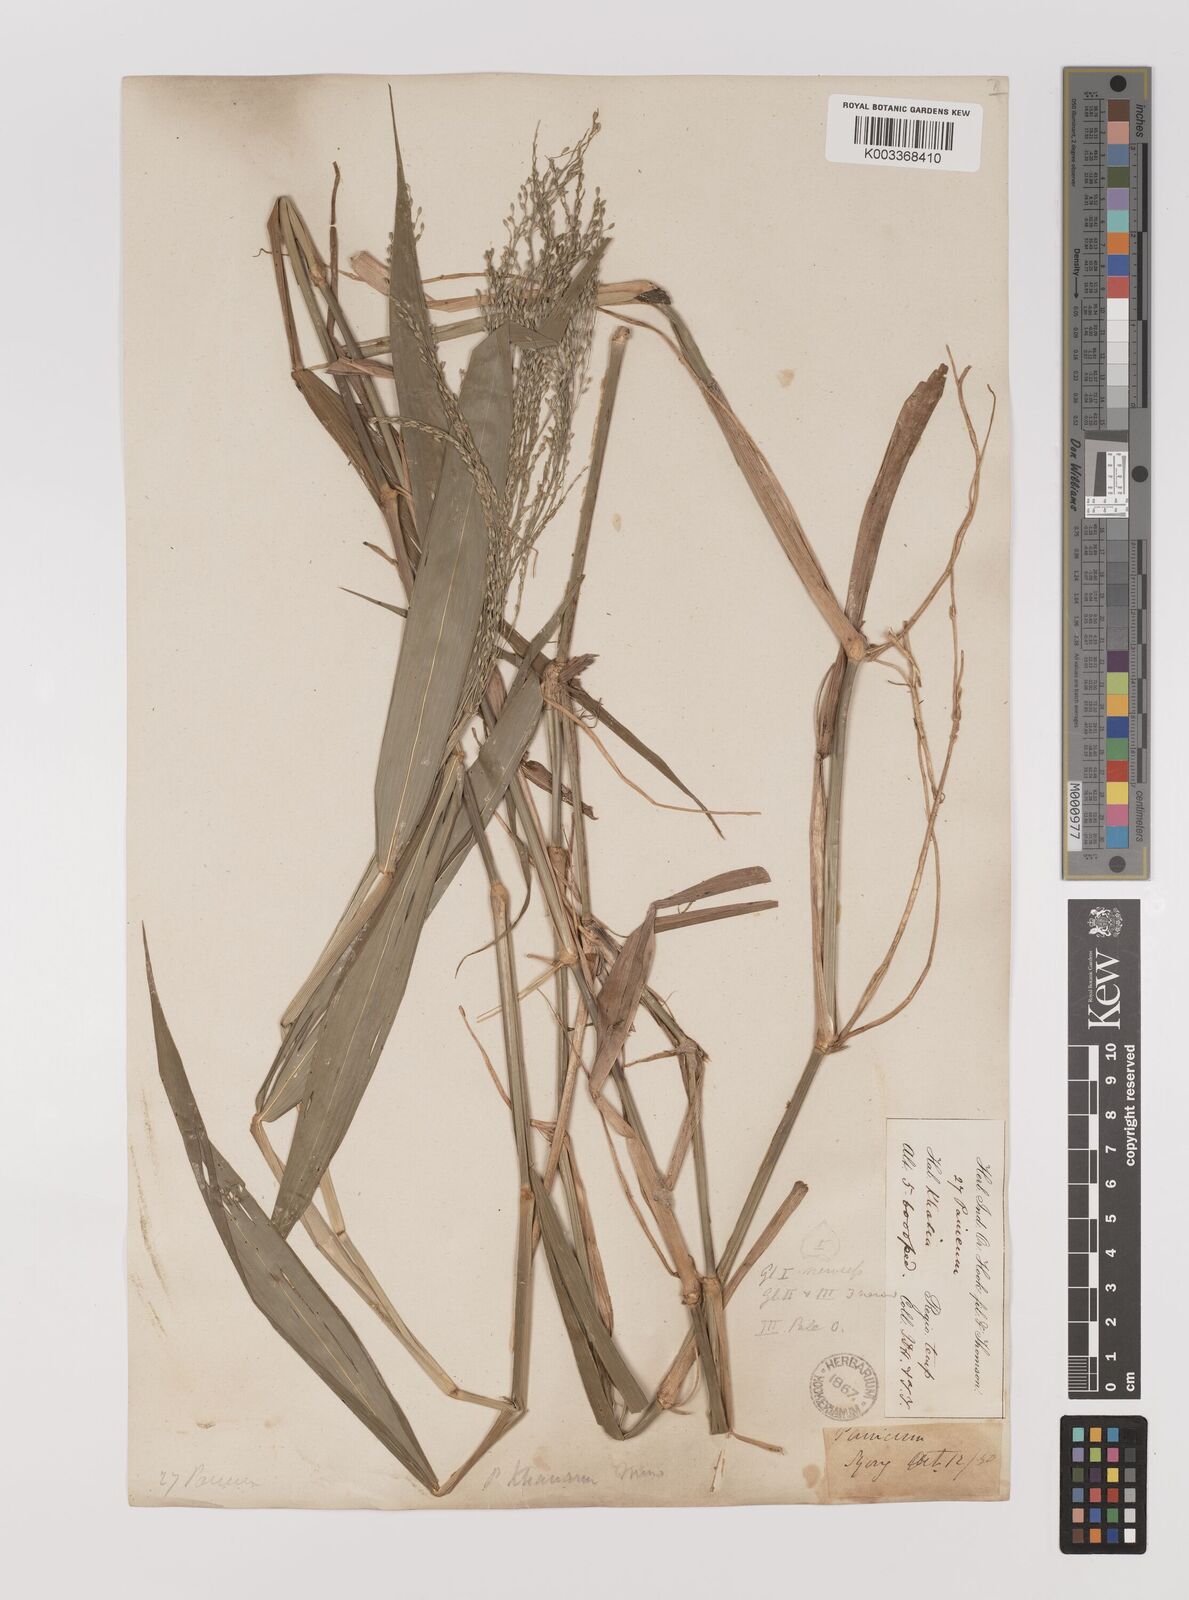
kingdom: Plantae
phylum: Tracheophyta
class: Liliopsida
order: Poales
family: Poaceae
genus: Panicum
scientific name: Panicum khasianum
